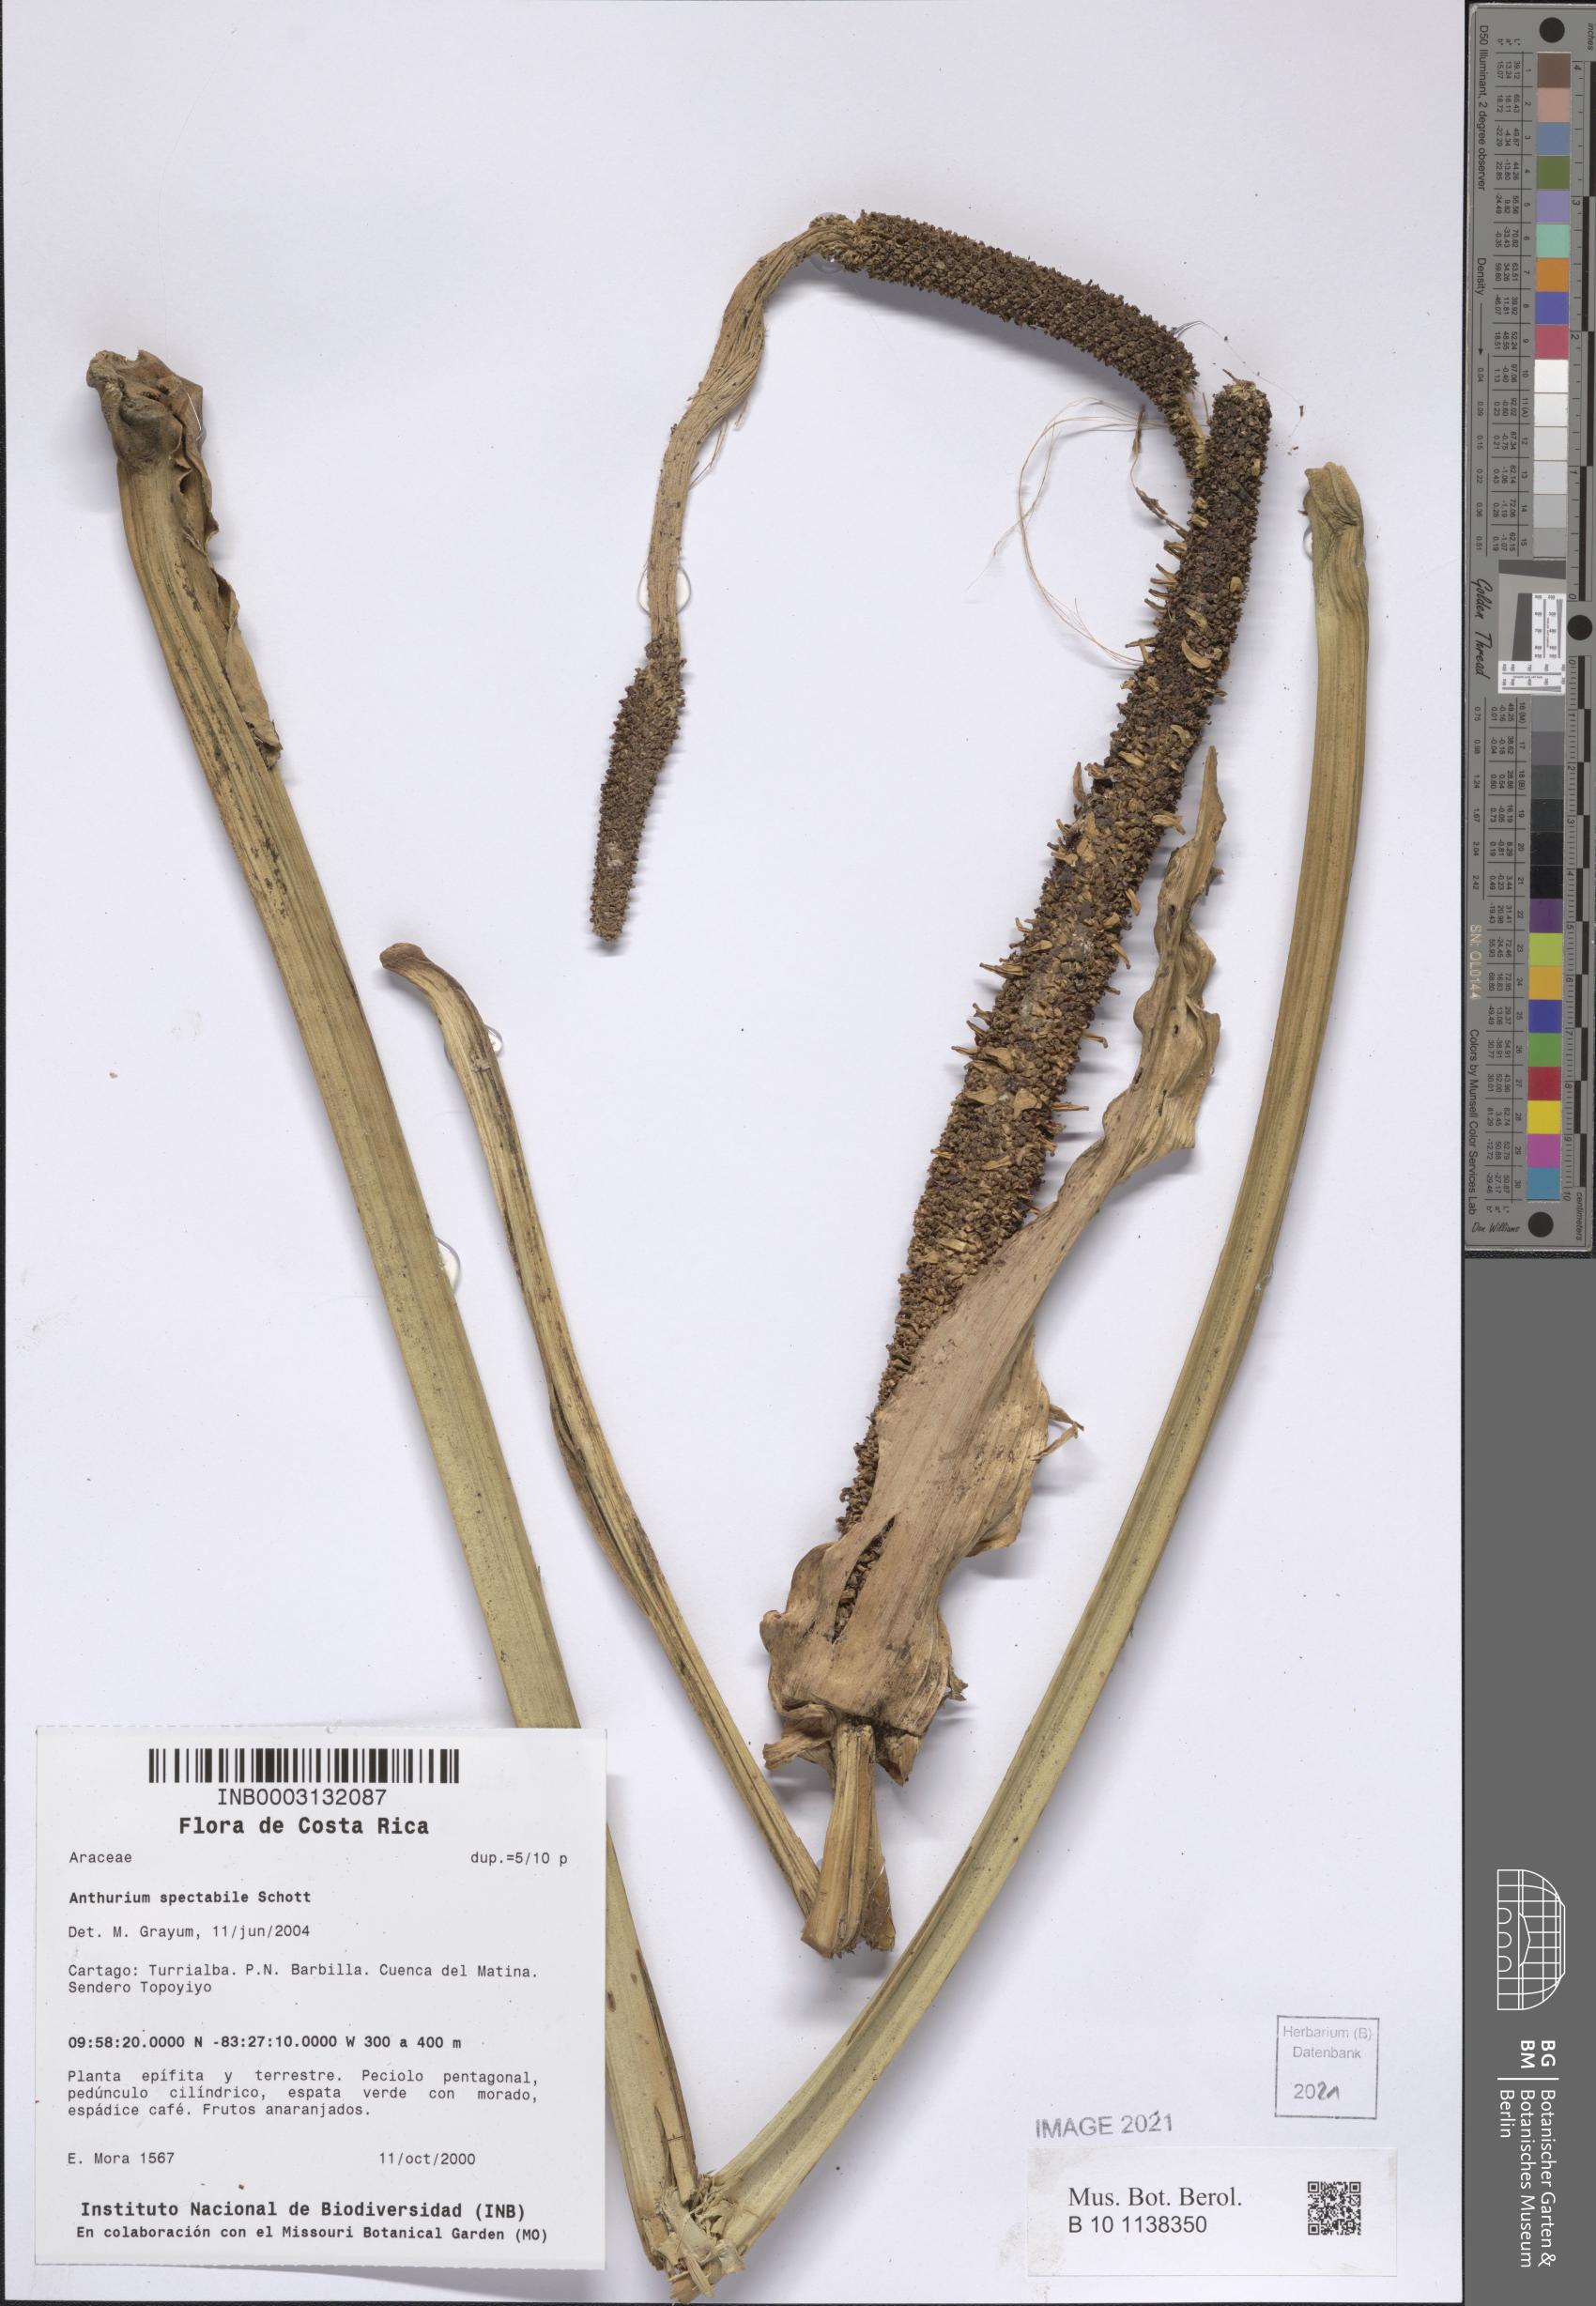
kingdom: Plantae
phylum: Tracheophyta
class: Liliopsida
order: Alismatales
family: Araceae
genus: Anthurium
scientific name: Anthurium spectabile
